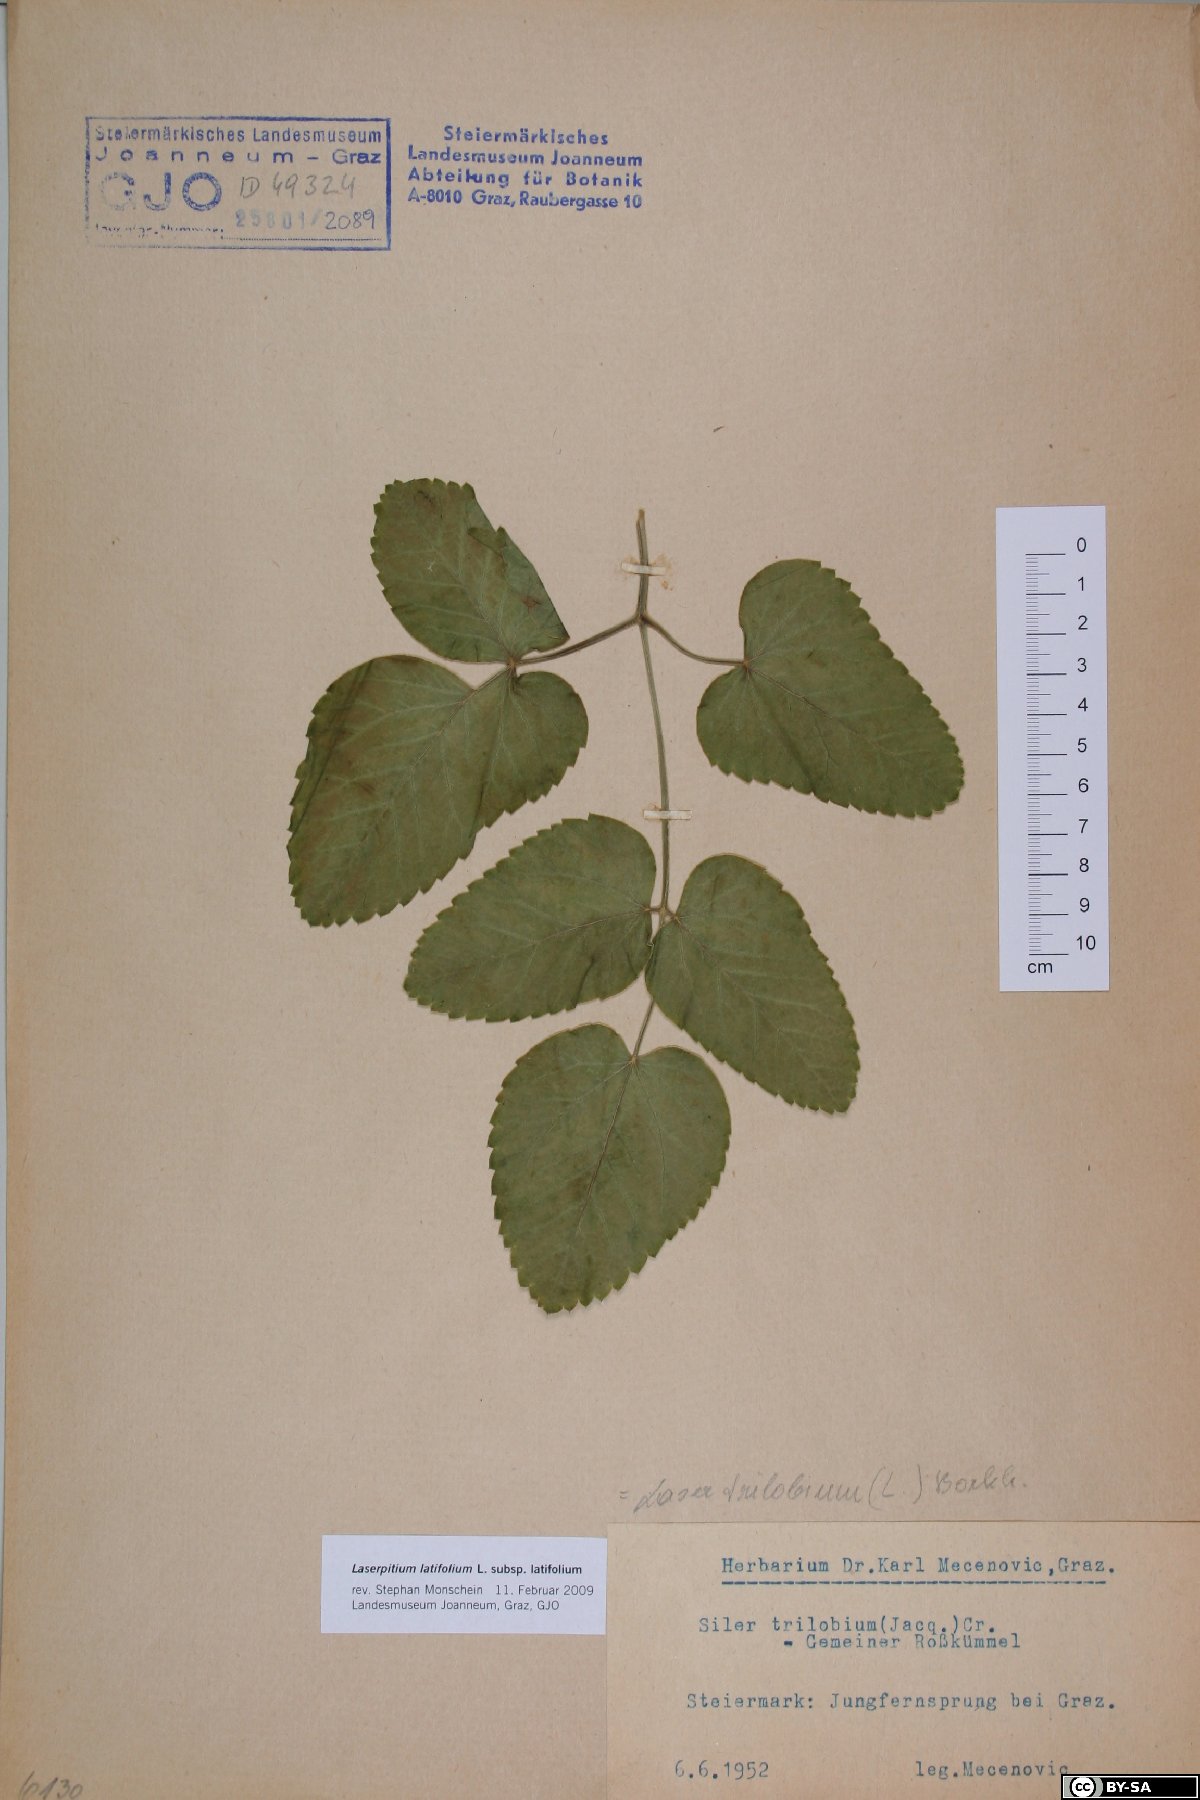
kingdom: Plantae
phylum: Tracheophyta
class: Magnoliopsida
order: Apiales
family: Apiaceae
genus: Laserpitium
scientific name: Laserpitium latifolium
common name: Broadleaf sermountain
